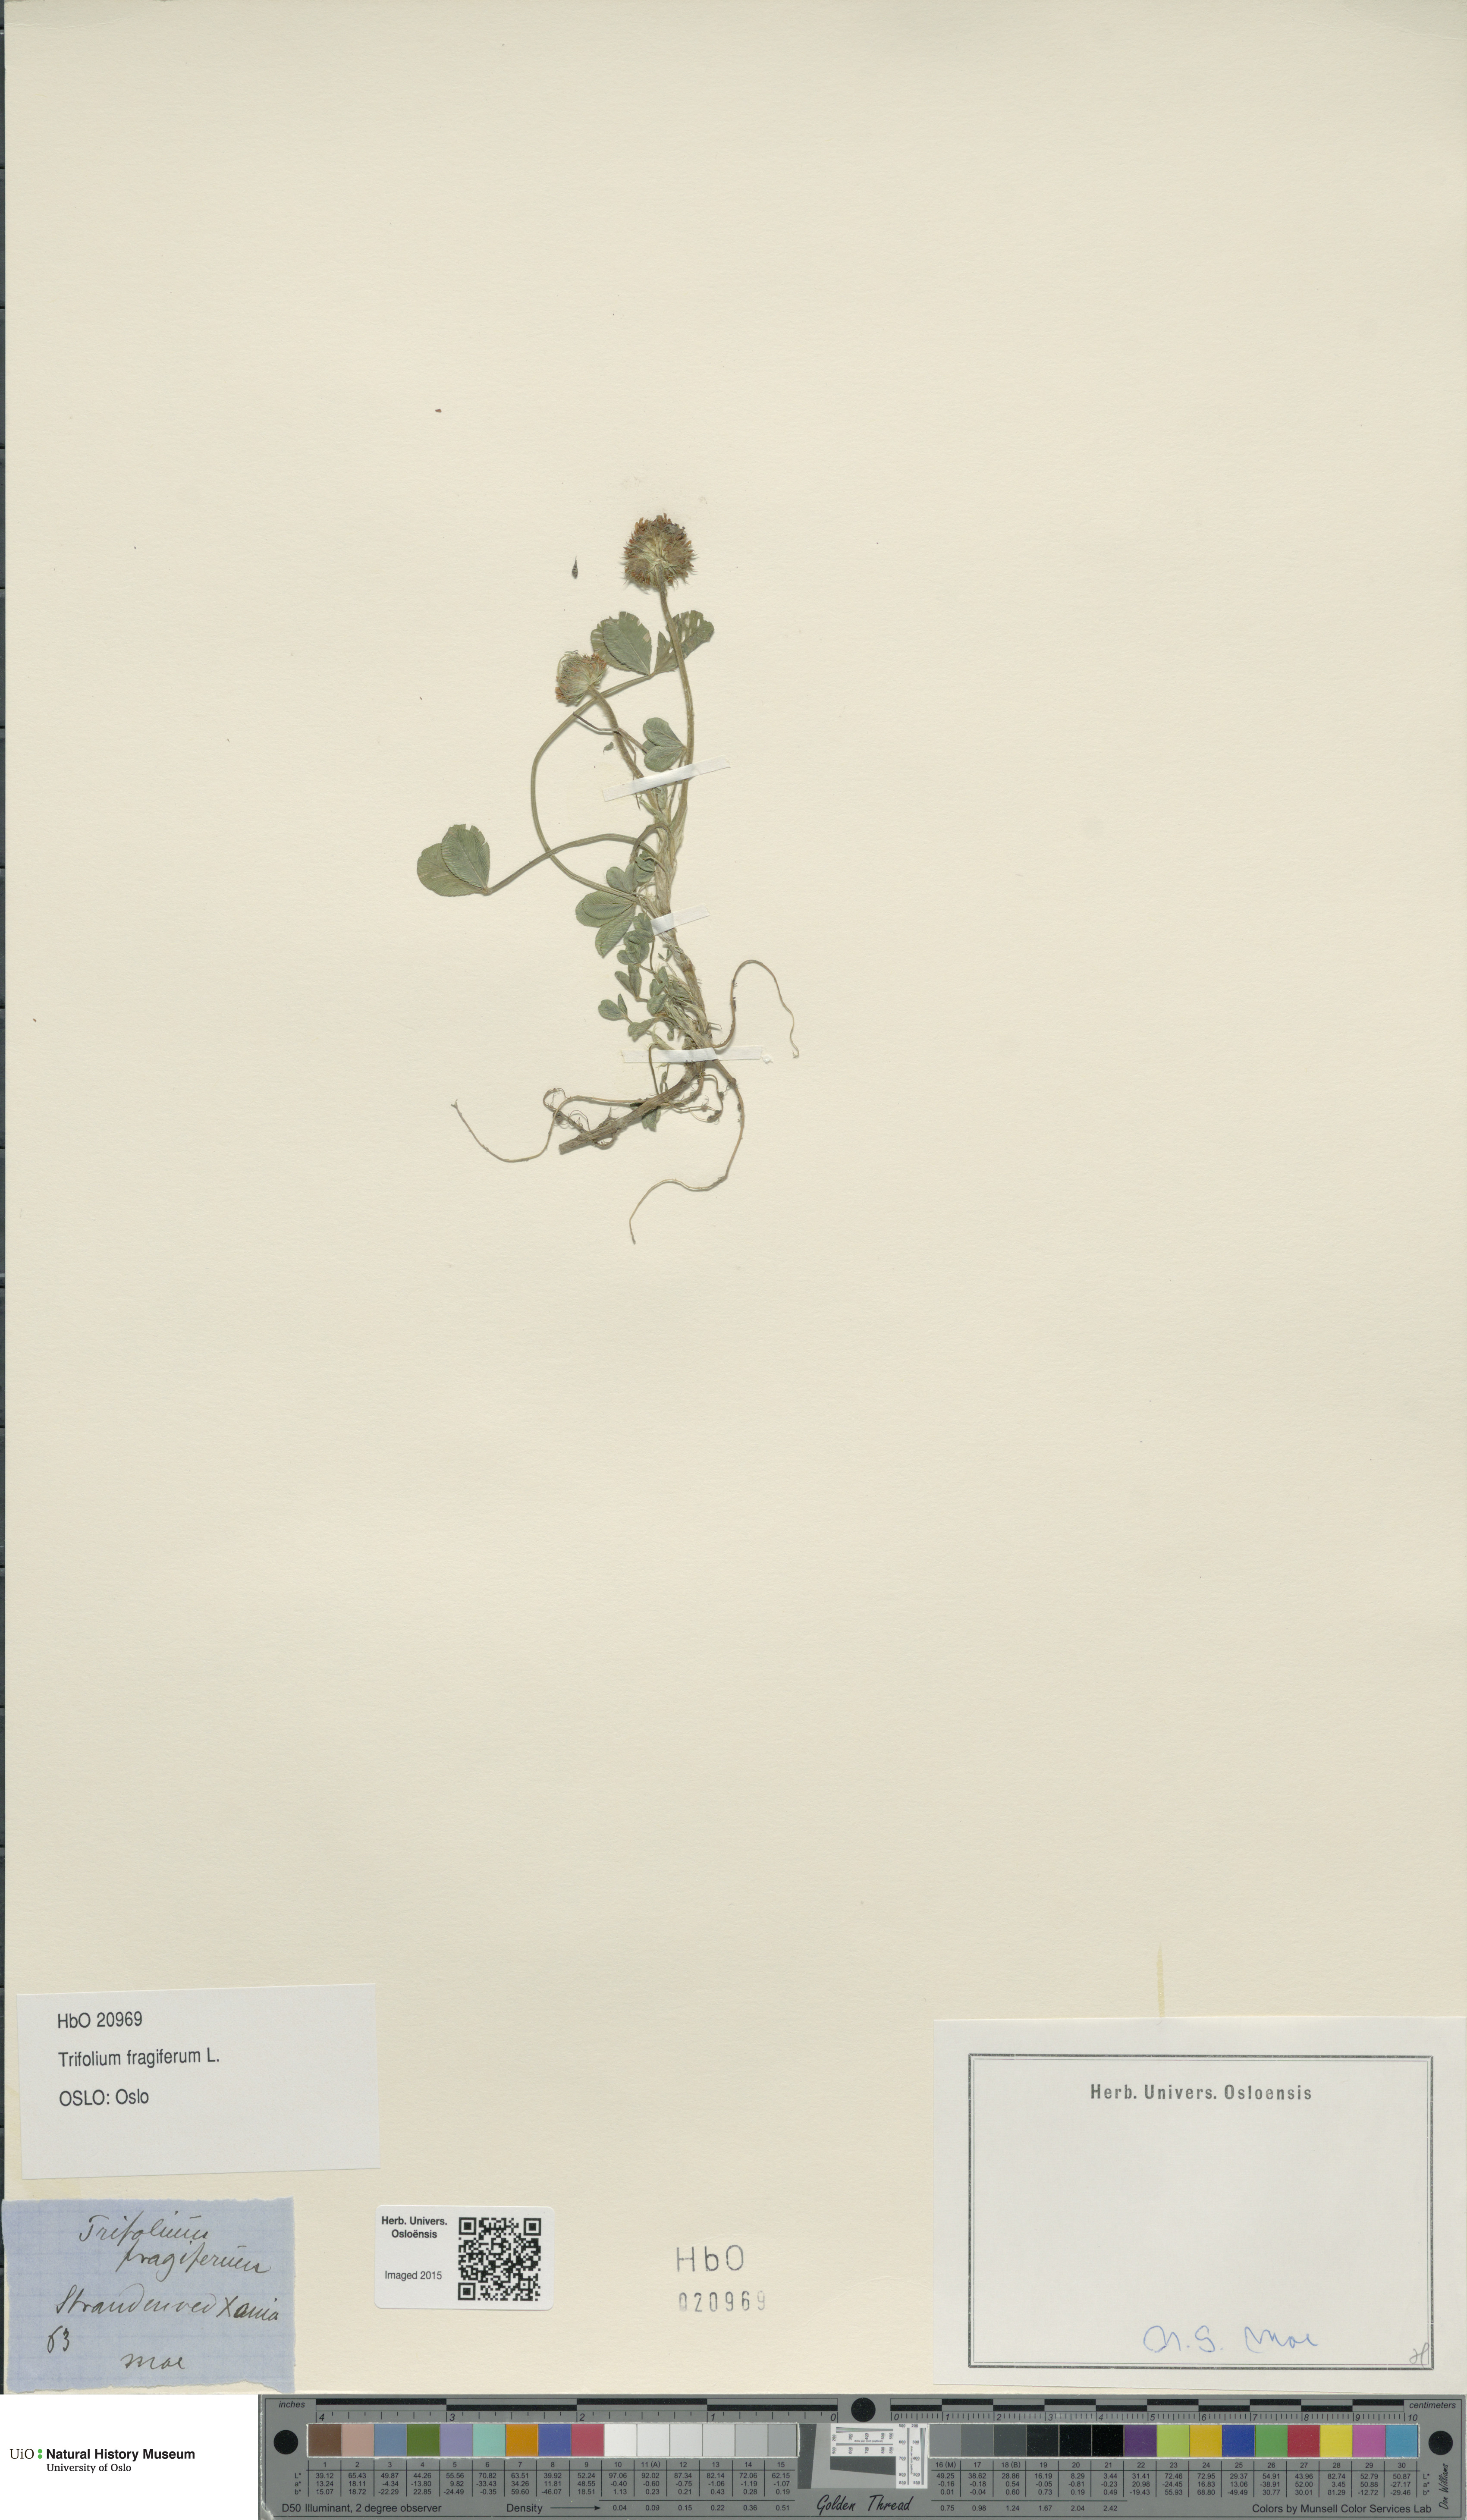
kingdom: Plantae
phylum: Tracheophyta
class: Magnoliopsida
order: Fabales
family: Fabaceae
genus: Trifolium
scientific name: Trifolium fragiferum
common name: Strawberry clover
